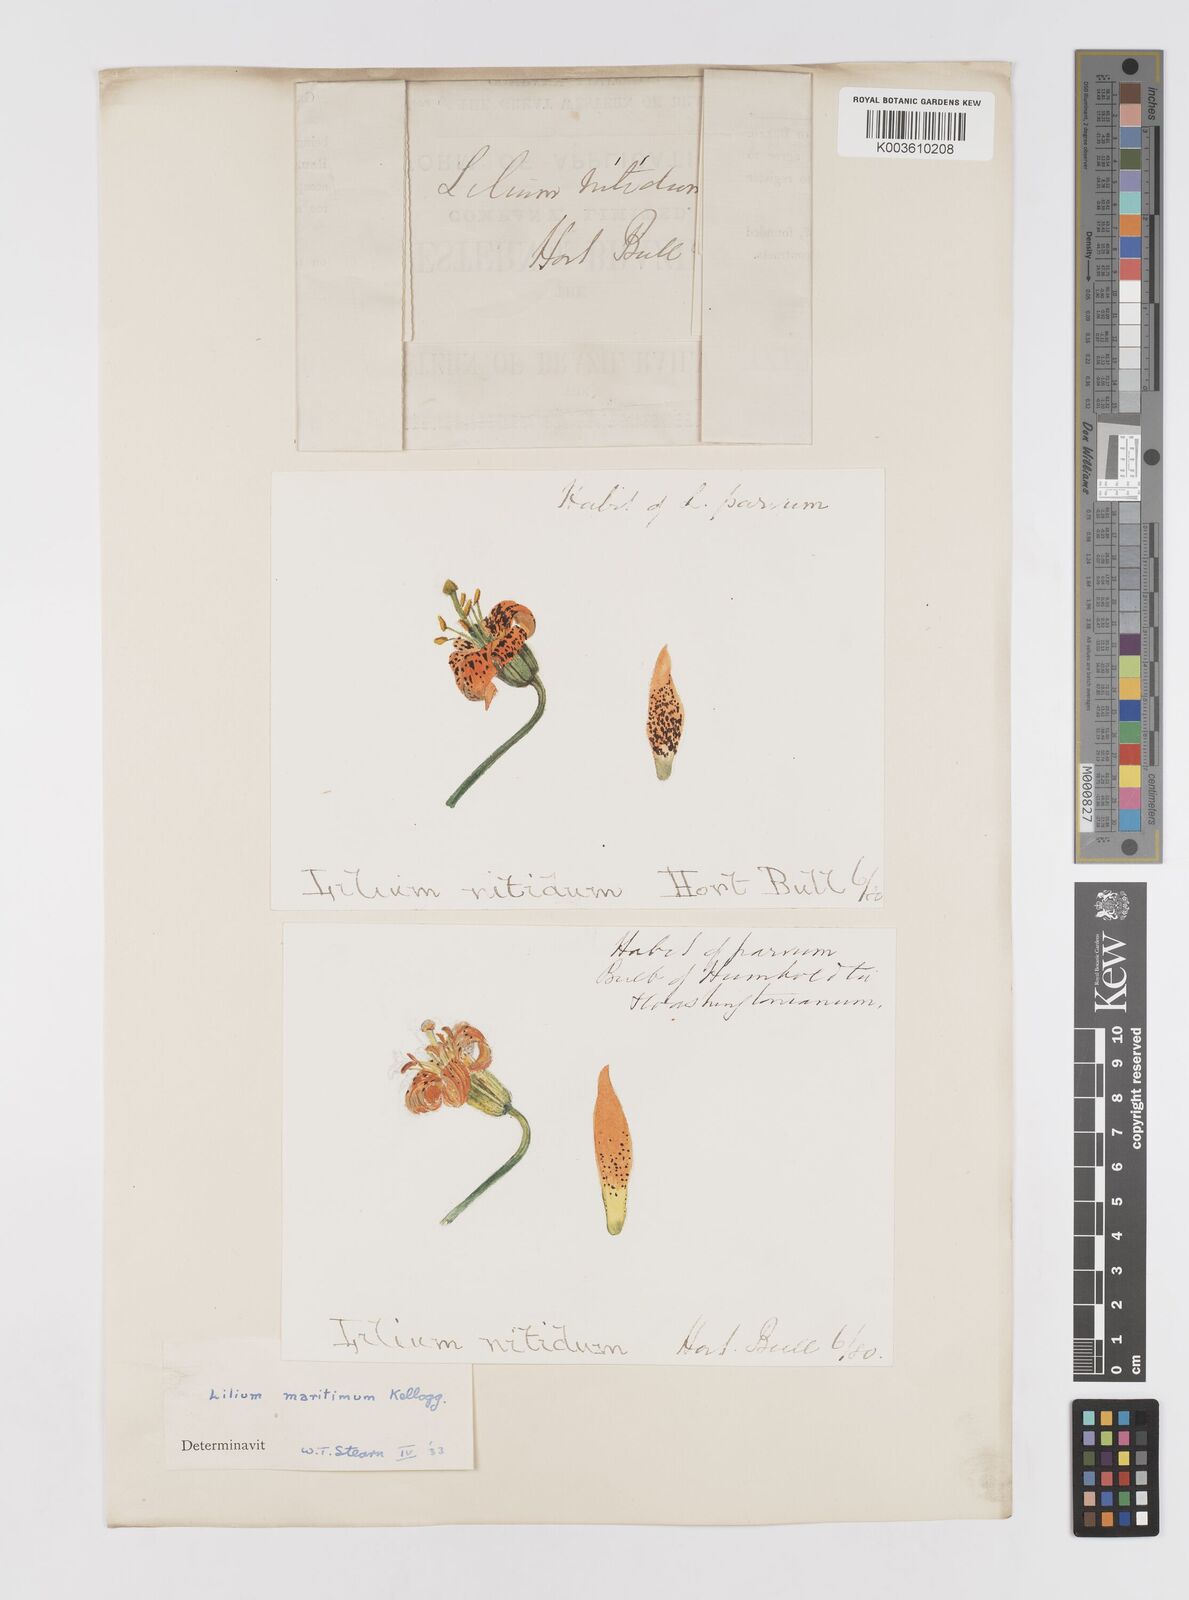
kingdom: Plantae
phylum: Tracheophyta
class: Liliopsida
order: Liliales
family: Liliaceae
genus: Lilium
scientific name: Lilium columbianum
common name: Columbia lily
